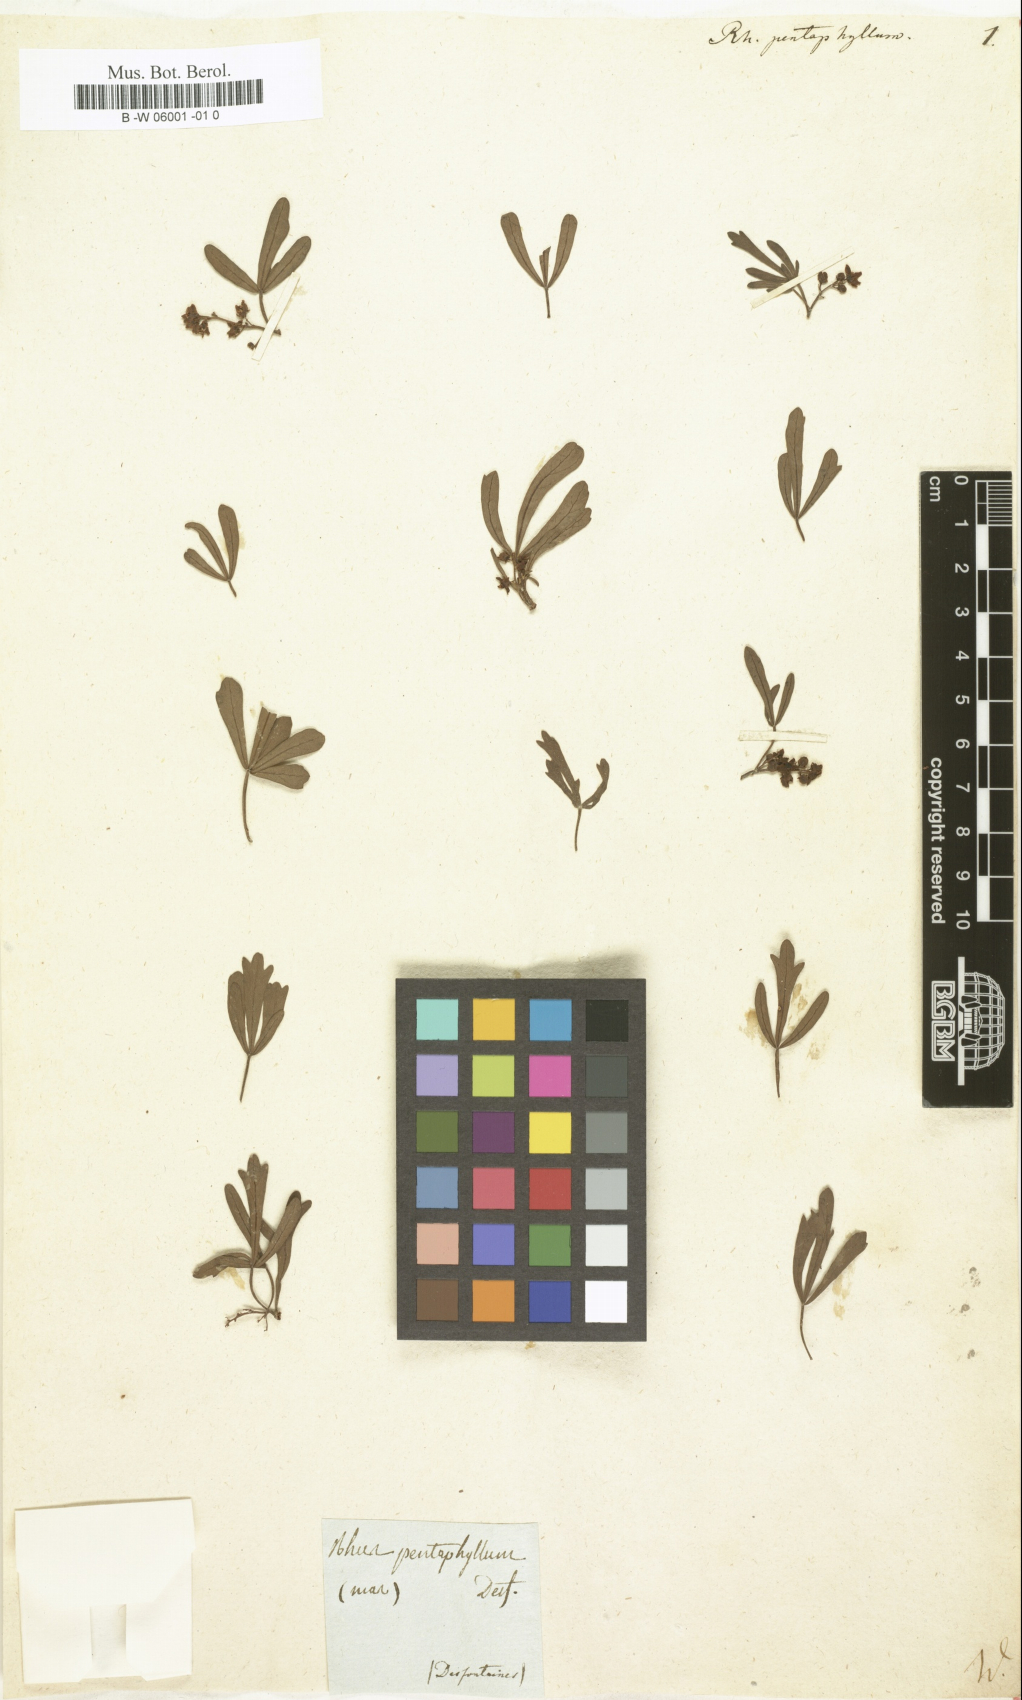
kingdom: Plantae
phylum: Tracheophyta
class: Magnoliopsida
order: Sapindales
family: Anacardiaceae
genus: Searsia
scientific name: Searsia pentaphylla
